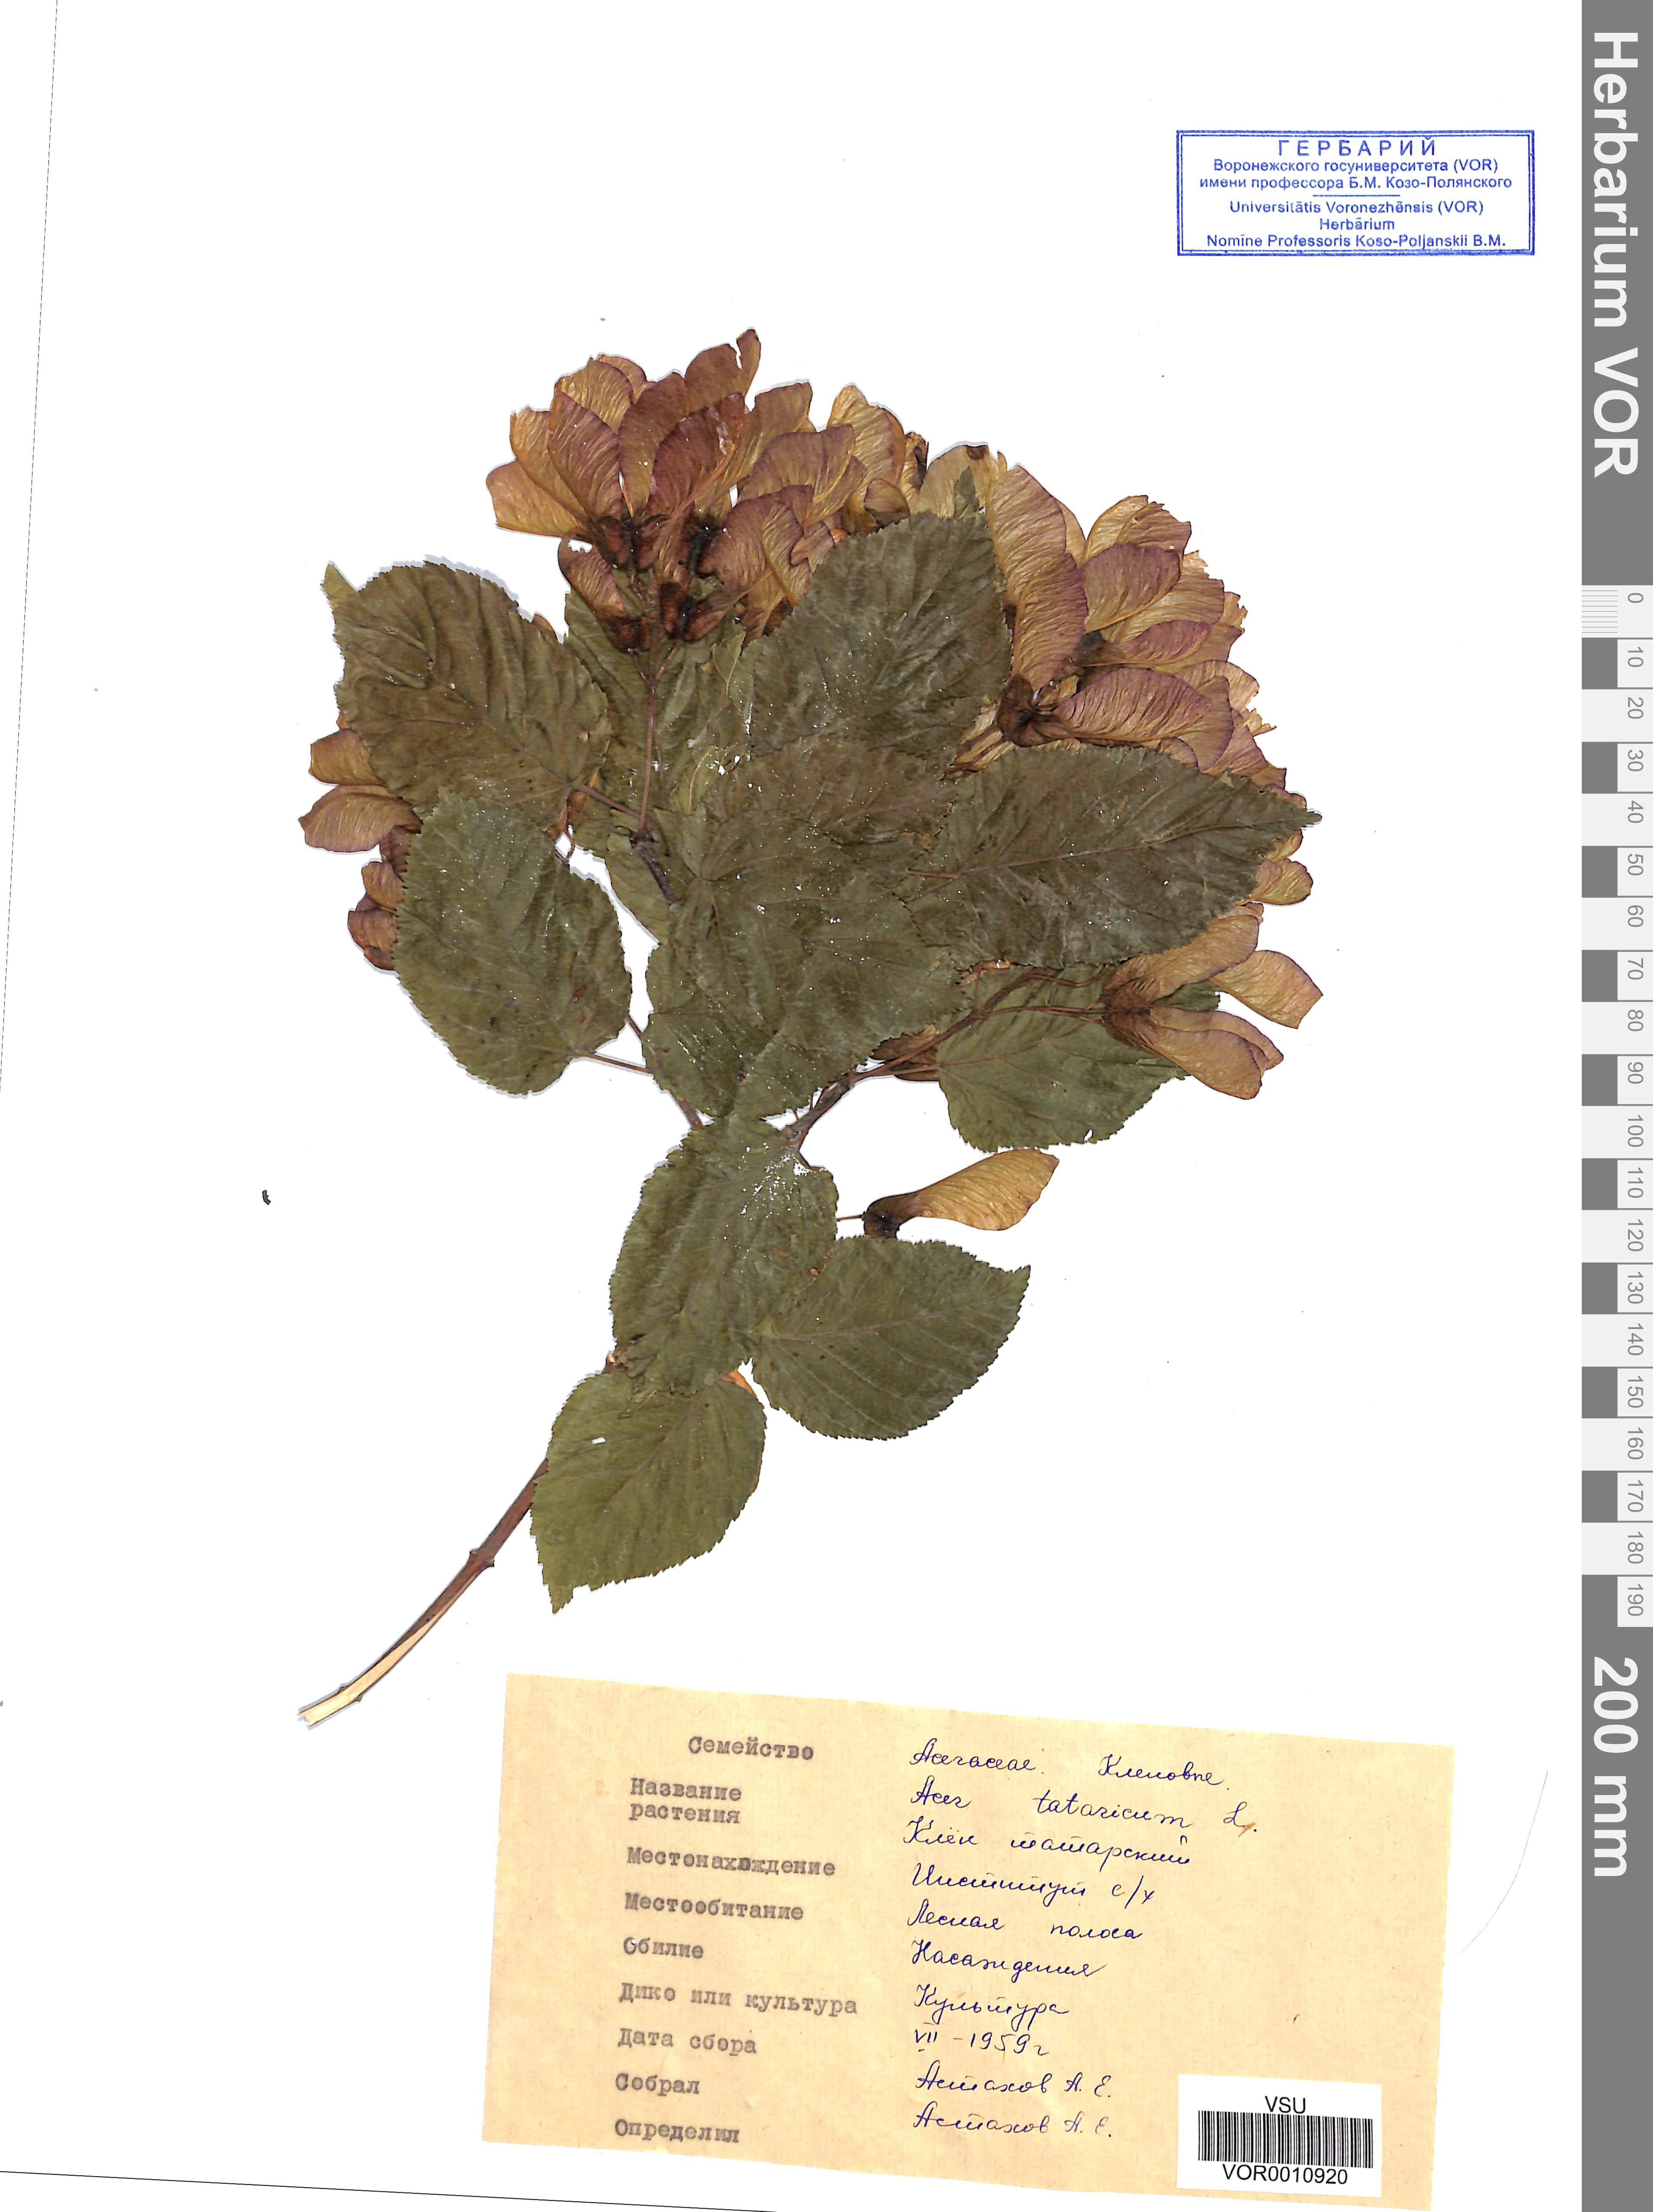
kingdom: Plantae
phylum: Tracheophyta
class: Magnoliopsida
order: Sapindales
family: Sapindaceae
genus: Acer
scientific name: Acer tataricum
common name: Tartar maple
